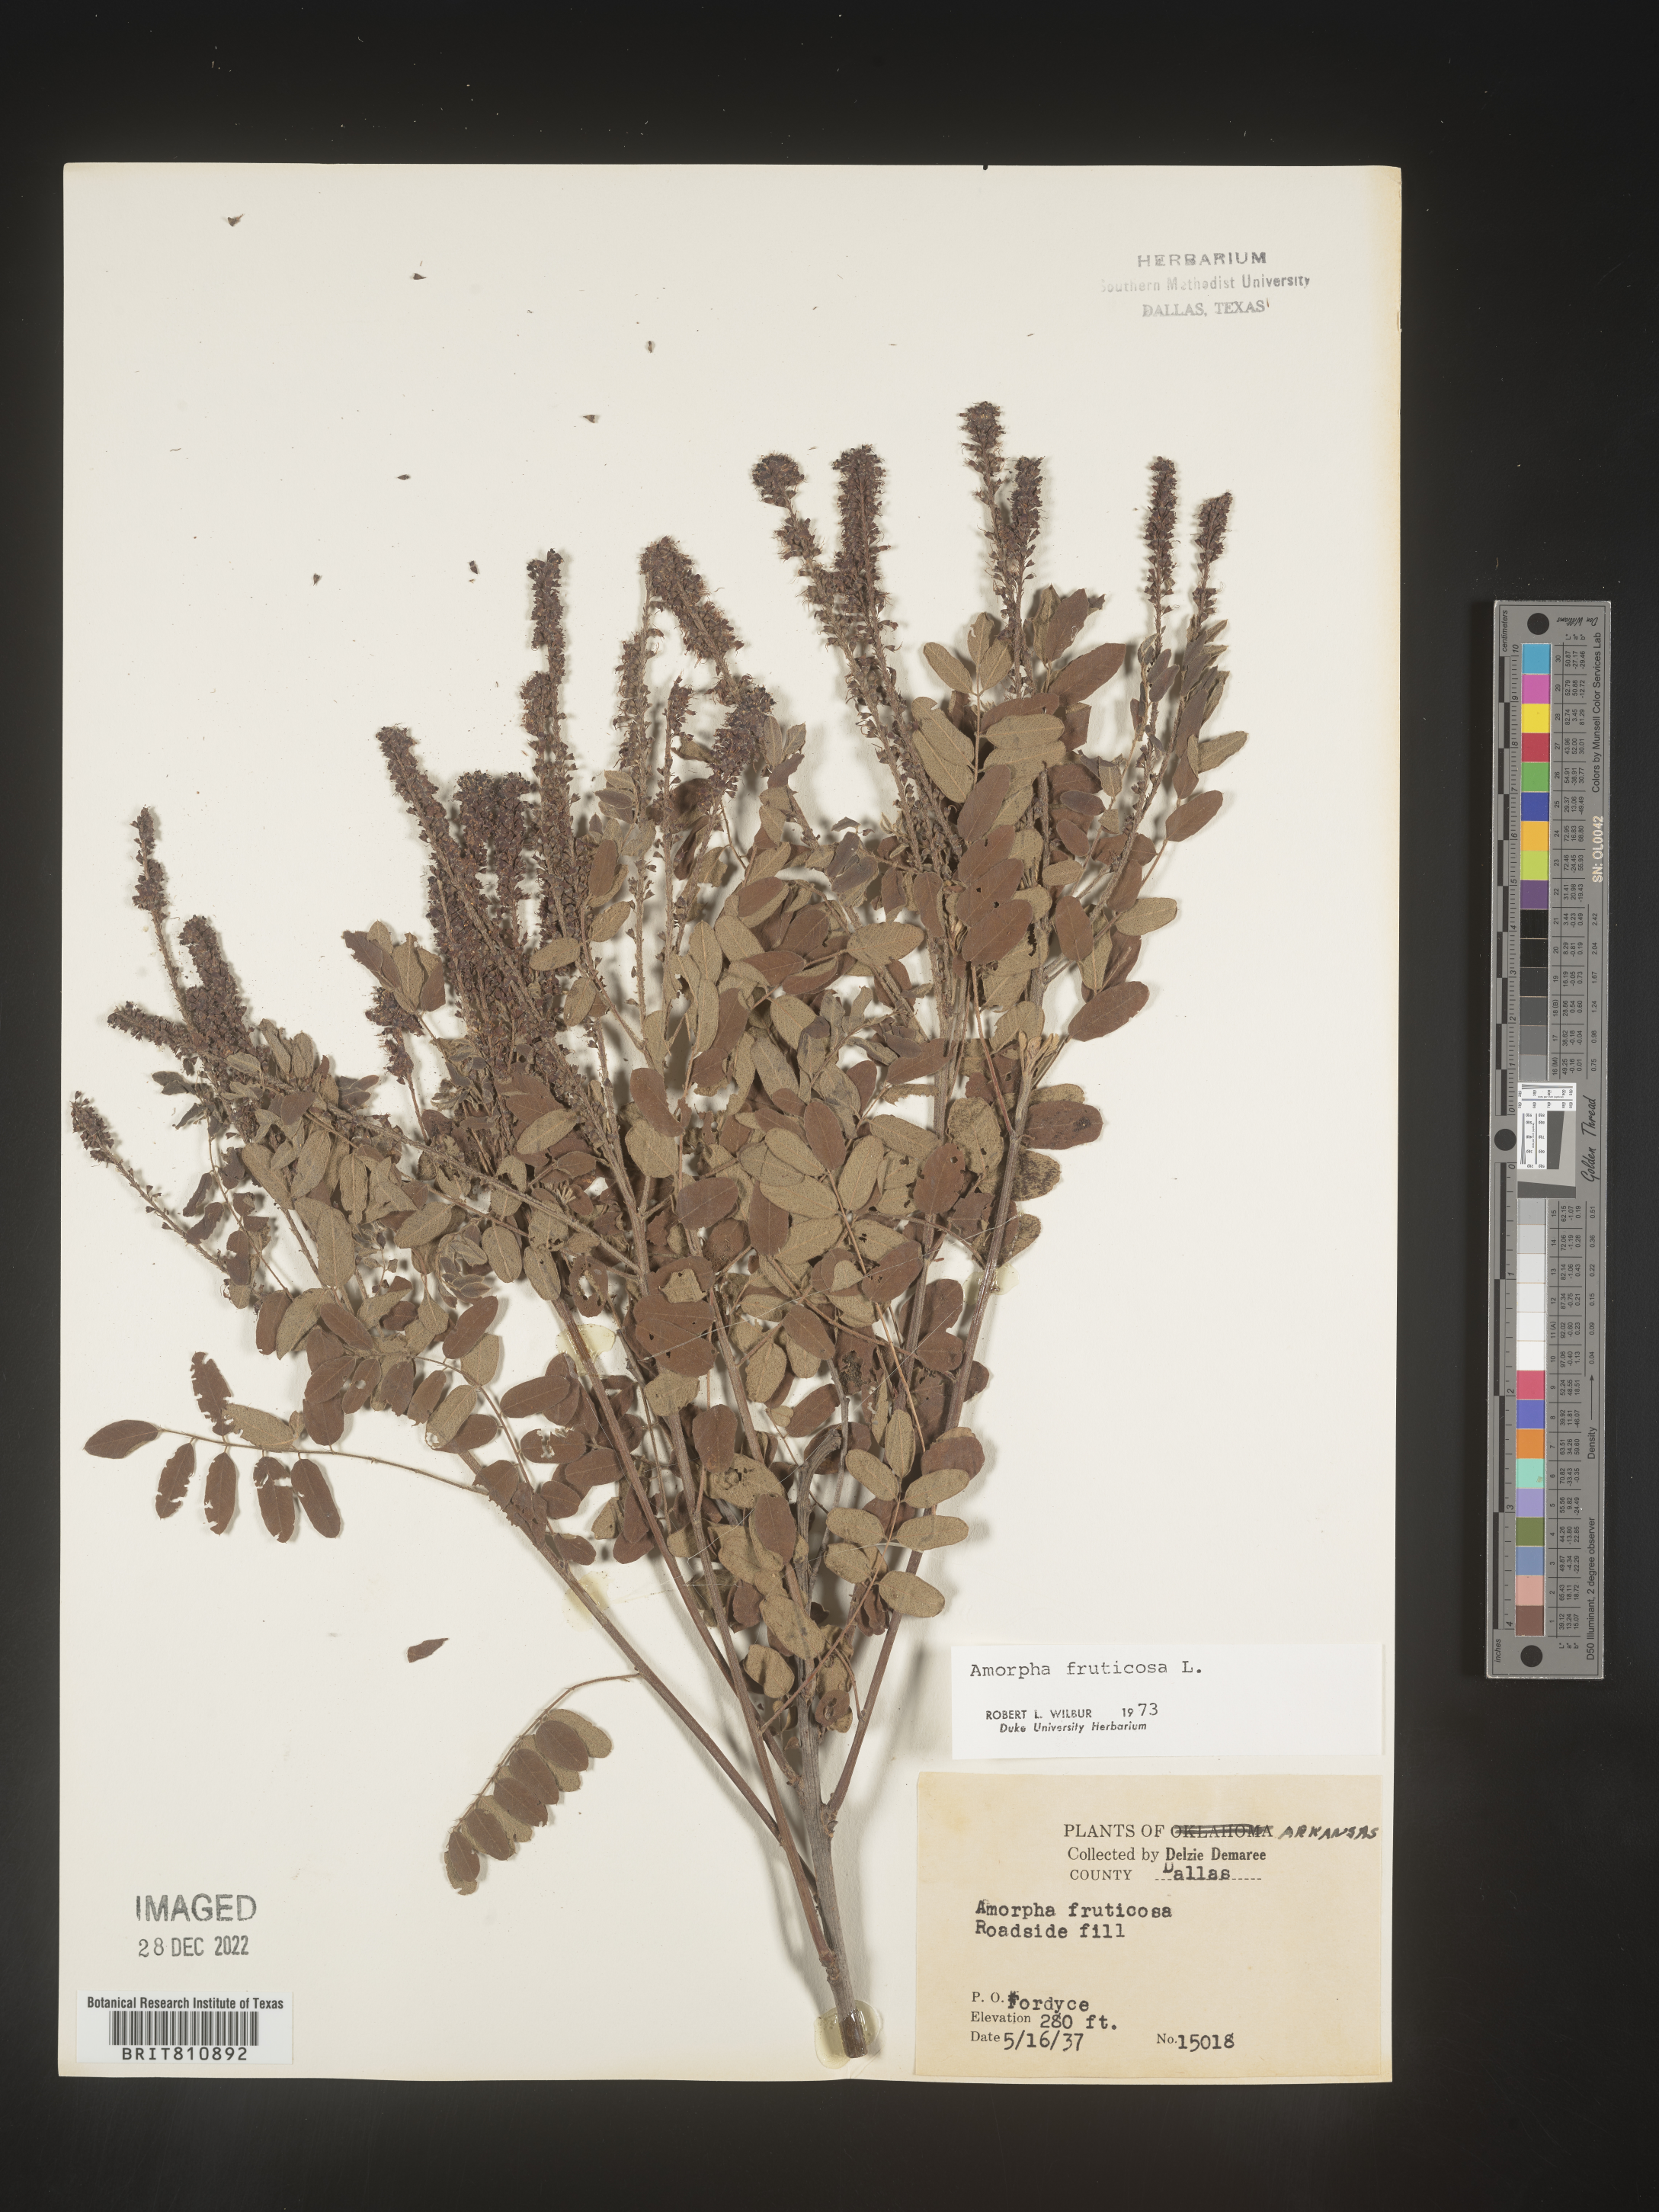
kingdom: Plantae
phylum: Tracheophyta
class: Magnoliopsida
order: Fabales
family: Fabaceae
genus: Amorpha
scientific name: Amorpha fruticosa
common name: False indigo
